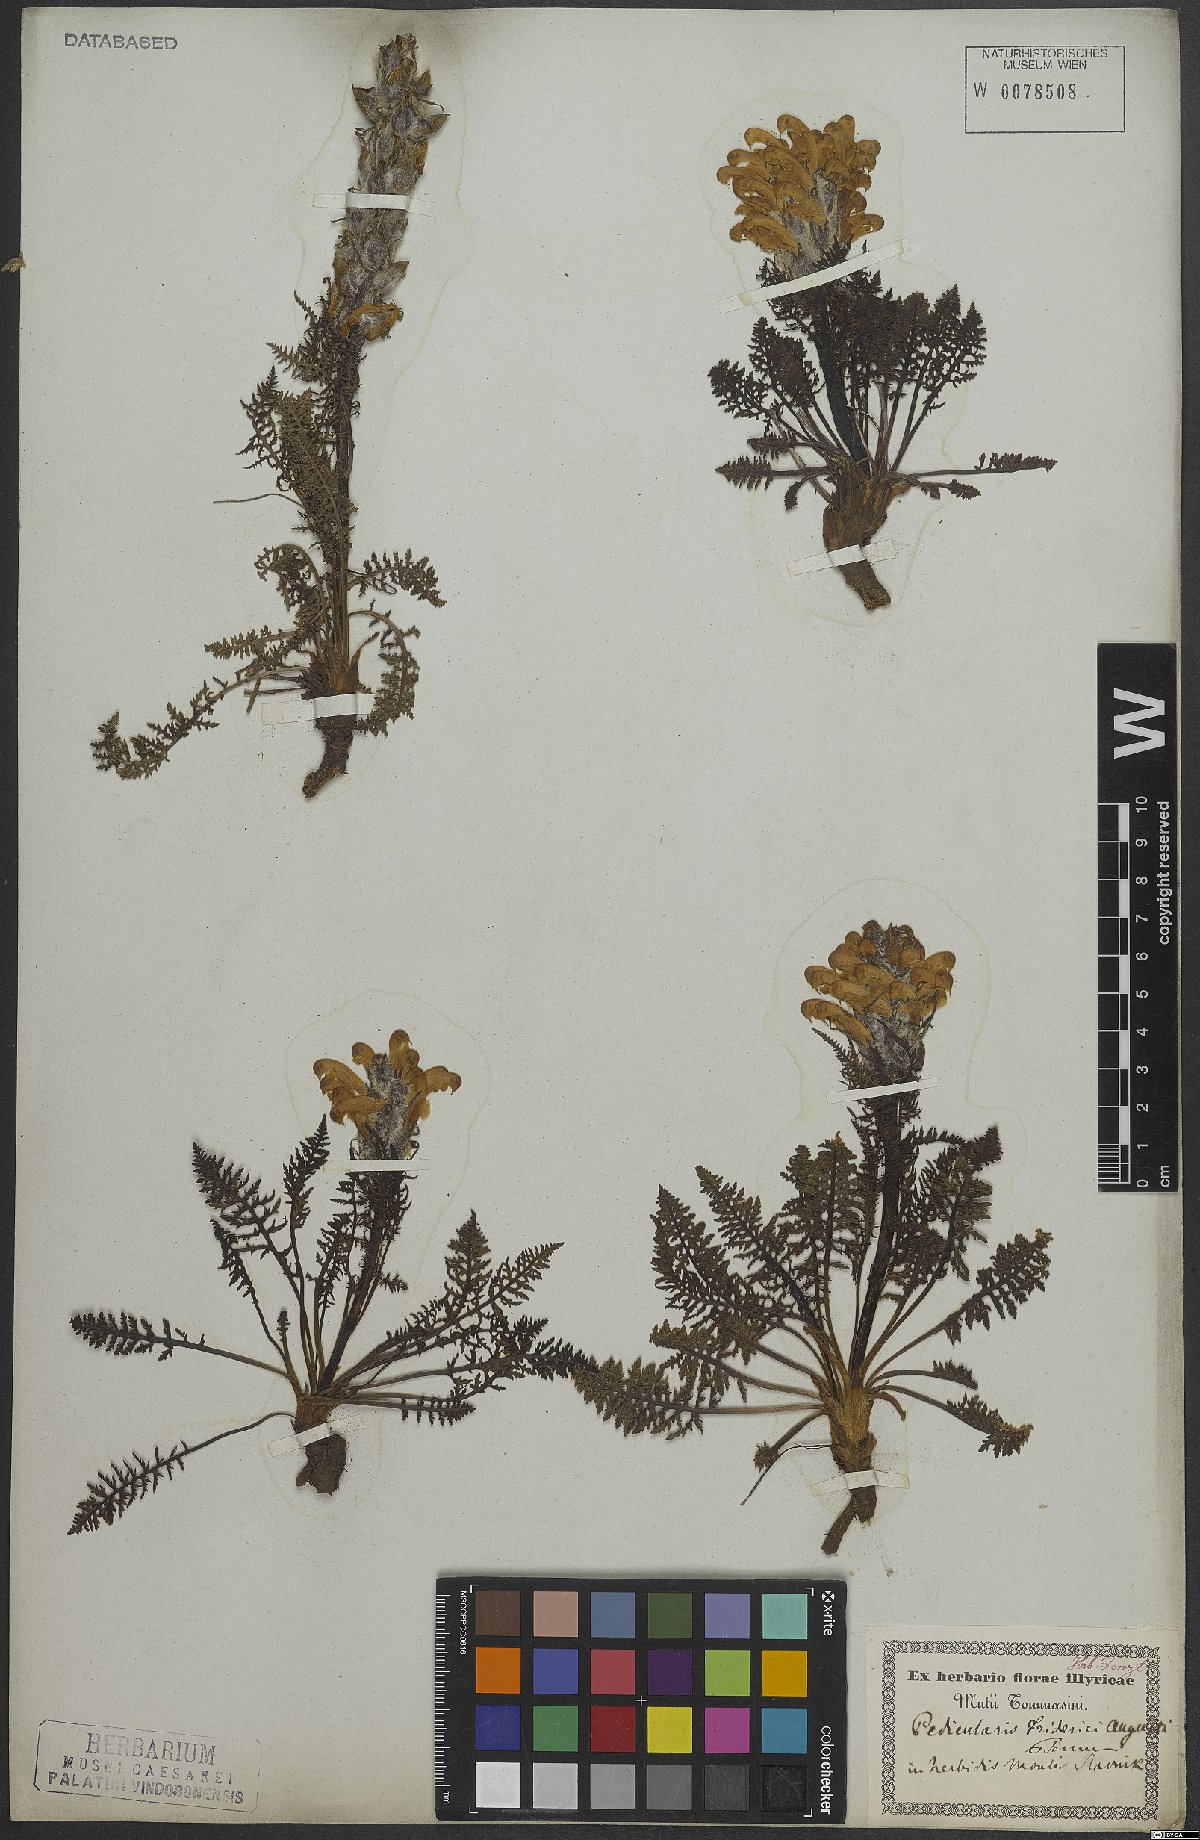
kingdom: Plantae
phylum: Tracheophyta
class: Magnoliopsida
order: Lamiales
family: Orobanchaceae
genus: Pedicularis
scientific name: Pedicularis friderici-augusti
